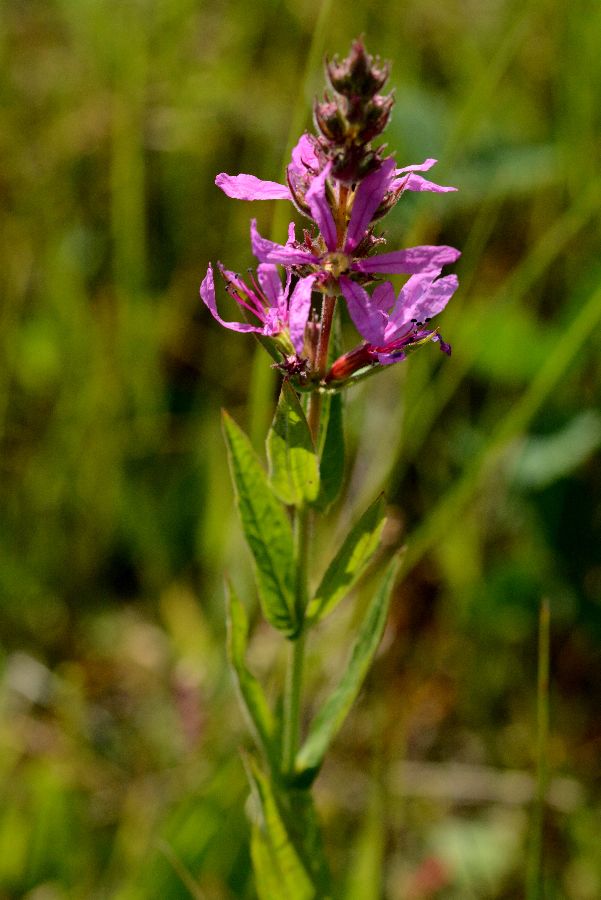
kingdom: Plantae
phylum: Tracheophyta
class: Magnoliopsida
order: Myrtales
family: Lythraceae
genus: Lythrum
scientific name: Lythrum salicaria
